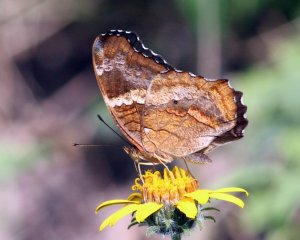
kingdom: Animalia
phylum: Arthropoda
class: Insecta
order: Lepidoptera
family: Nymphalidae
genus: Anartia
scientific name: Anartia fatima
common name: Banded Peacock
